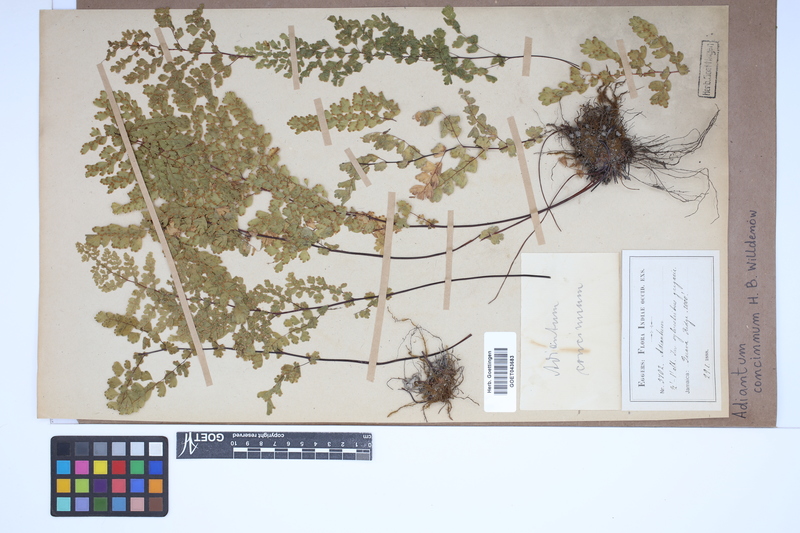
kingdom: Plantae
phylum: Tracheophyta
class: Polypodiopsida
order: Polypodiales
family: Pteridaceae
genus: Adiantum
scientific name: Adiantum concinnum
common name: Brittle maidenhair fern
